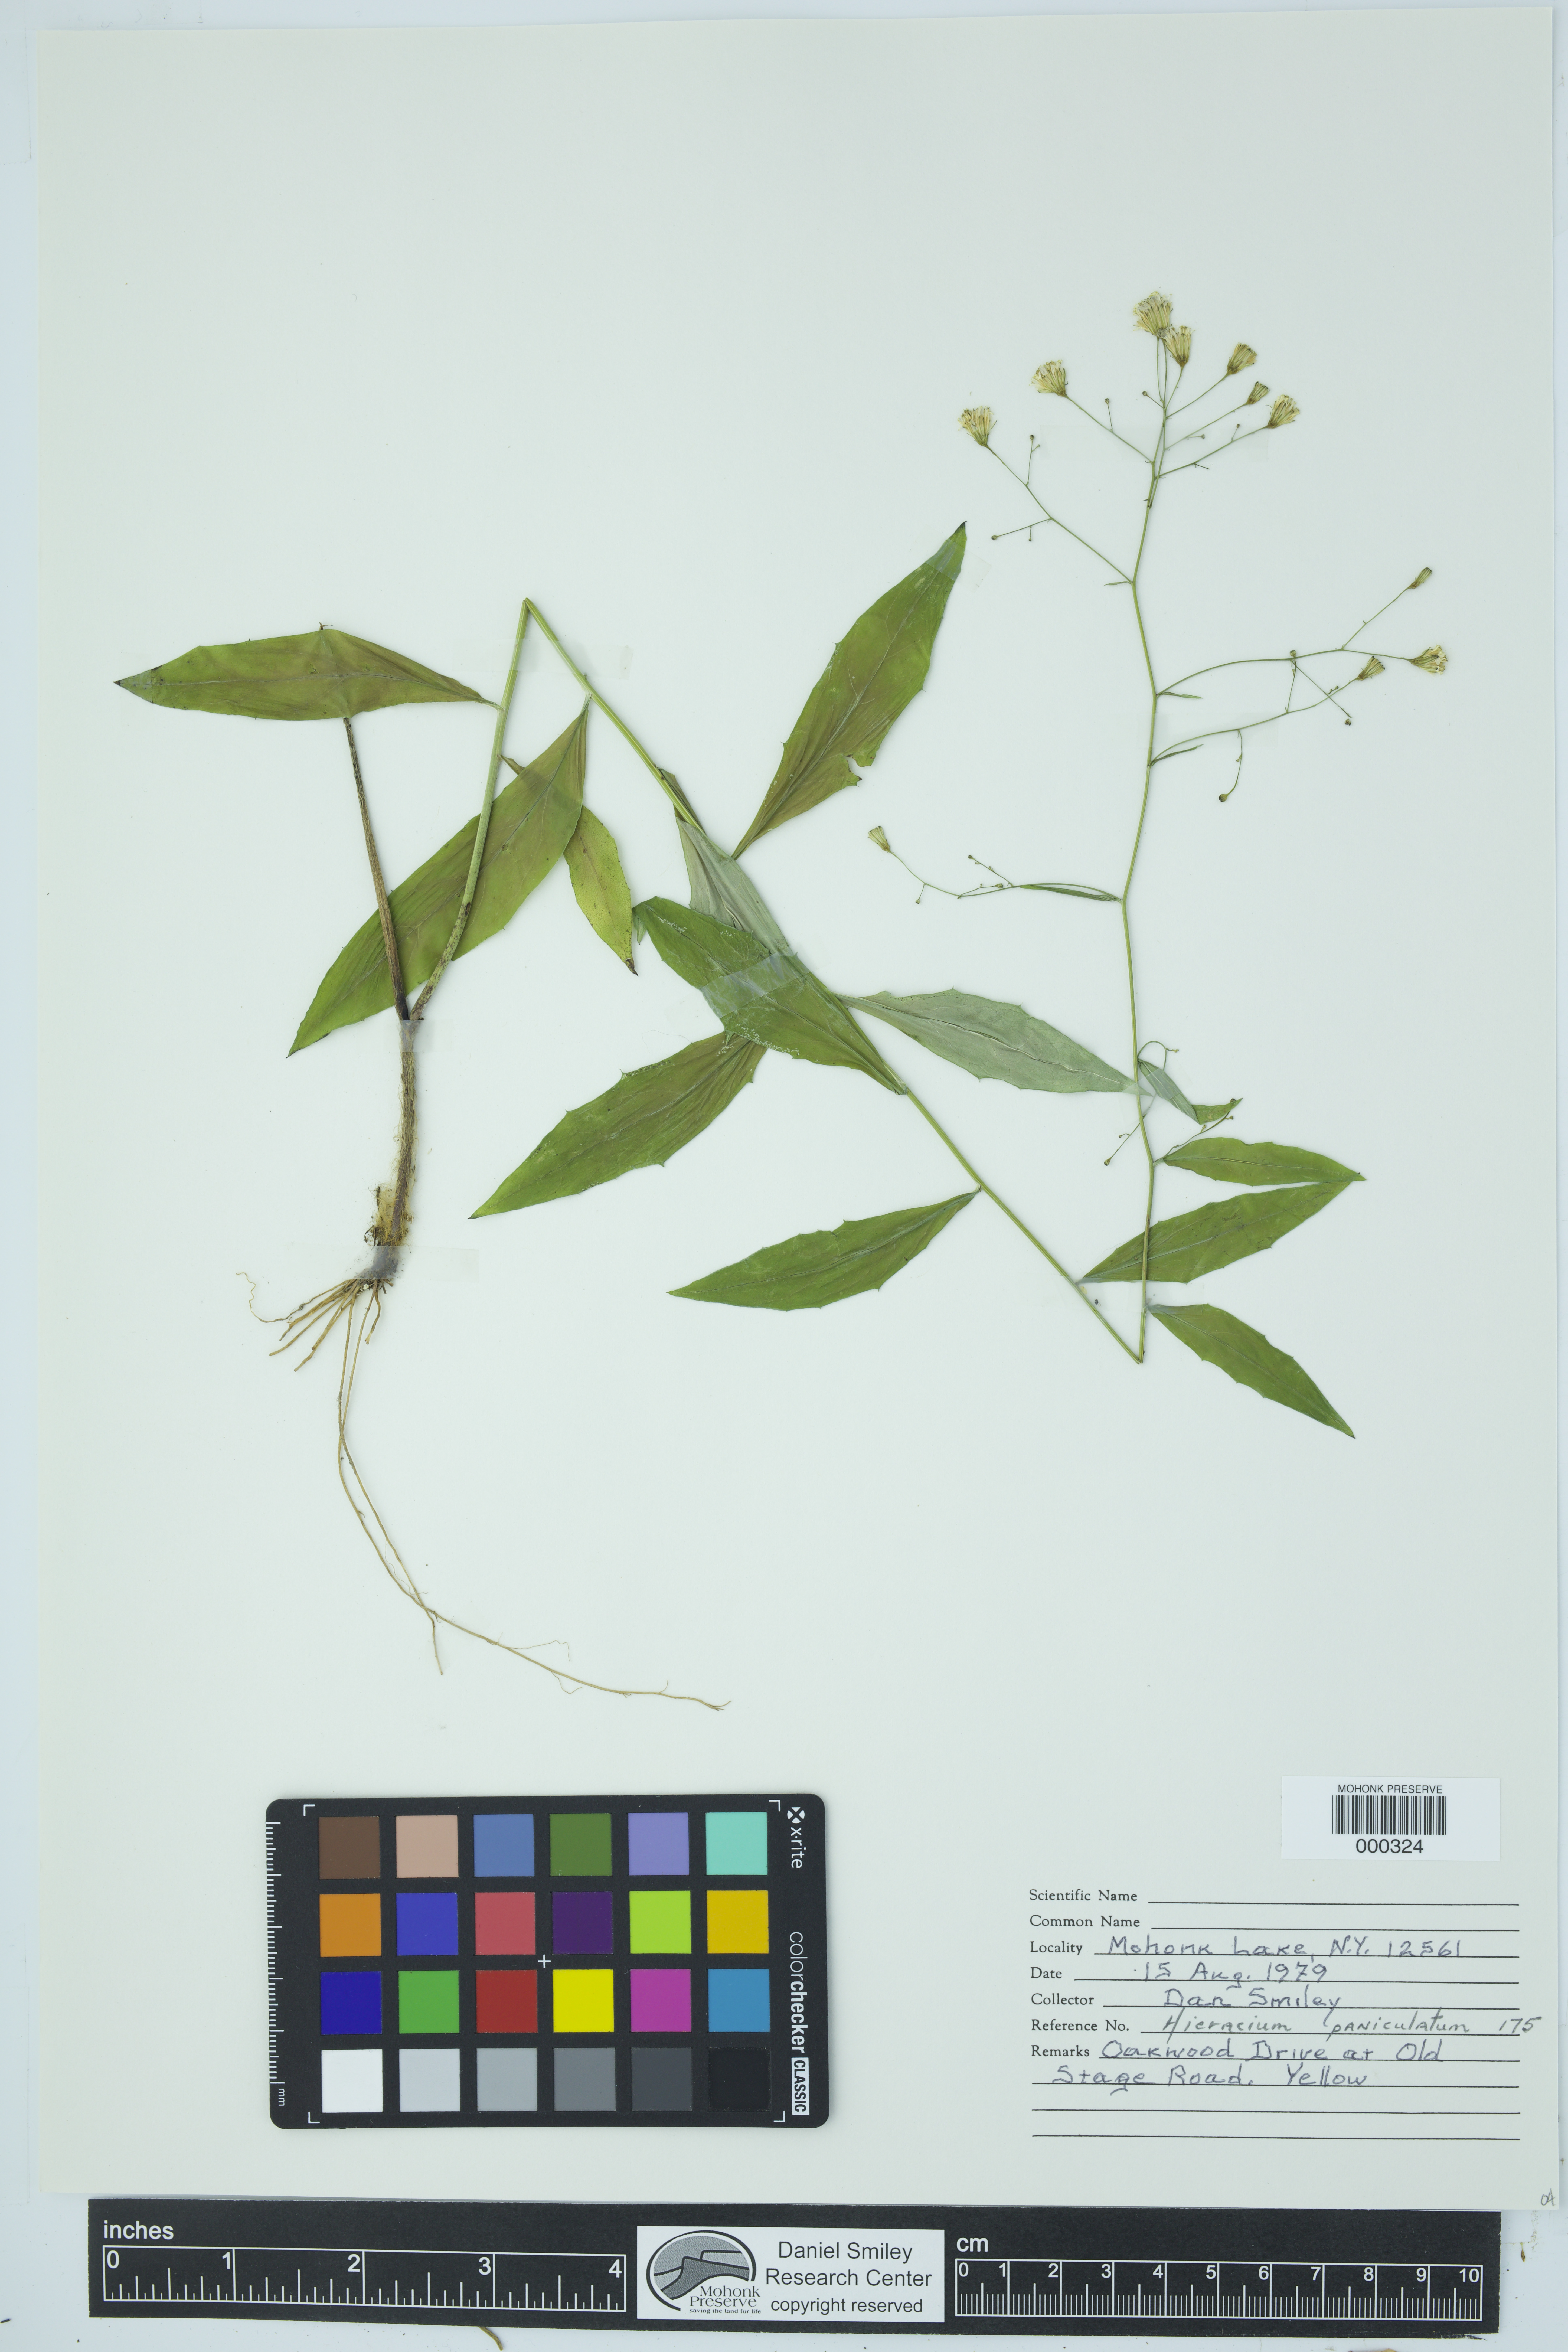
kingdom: Plantae
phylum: Tracheophyta
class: Magnoliopsida
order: Asterales
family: Asteraceae
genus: Hieracium
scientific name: Hieracium paniculatum
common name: Allegheny hawkweed
